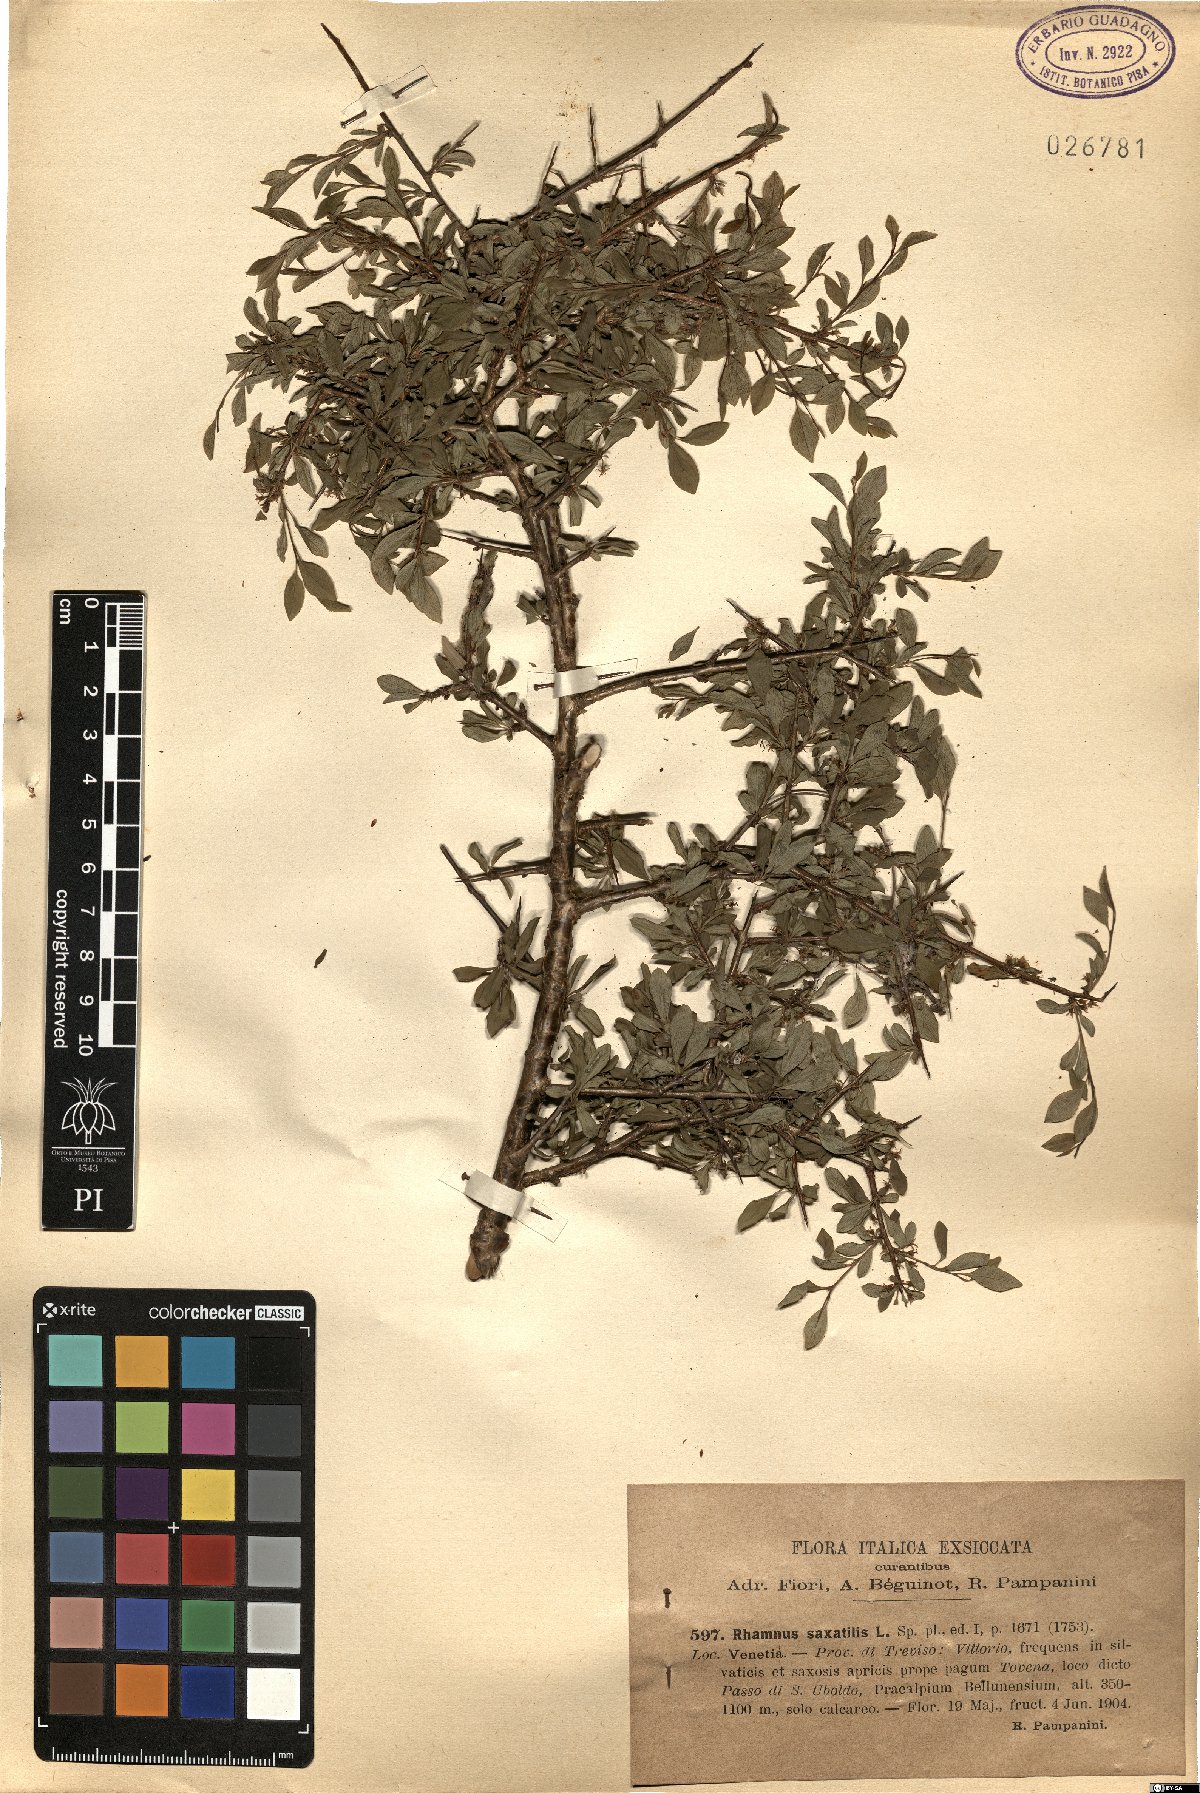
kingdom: Plantae
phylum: Tracheophyta
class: Magnoliopsida
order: Rosales
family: Rhamnaceae
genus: Rhamnus
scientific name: Rhamnus saxatilis
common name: Rock buckthorn
